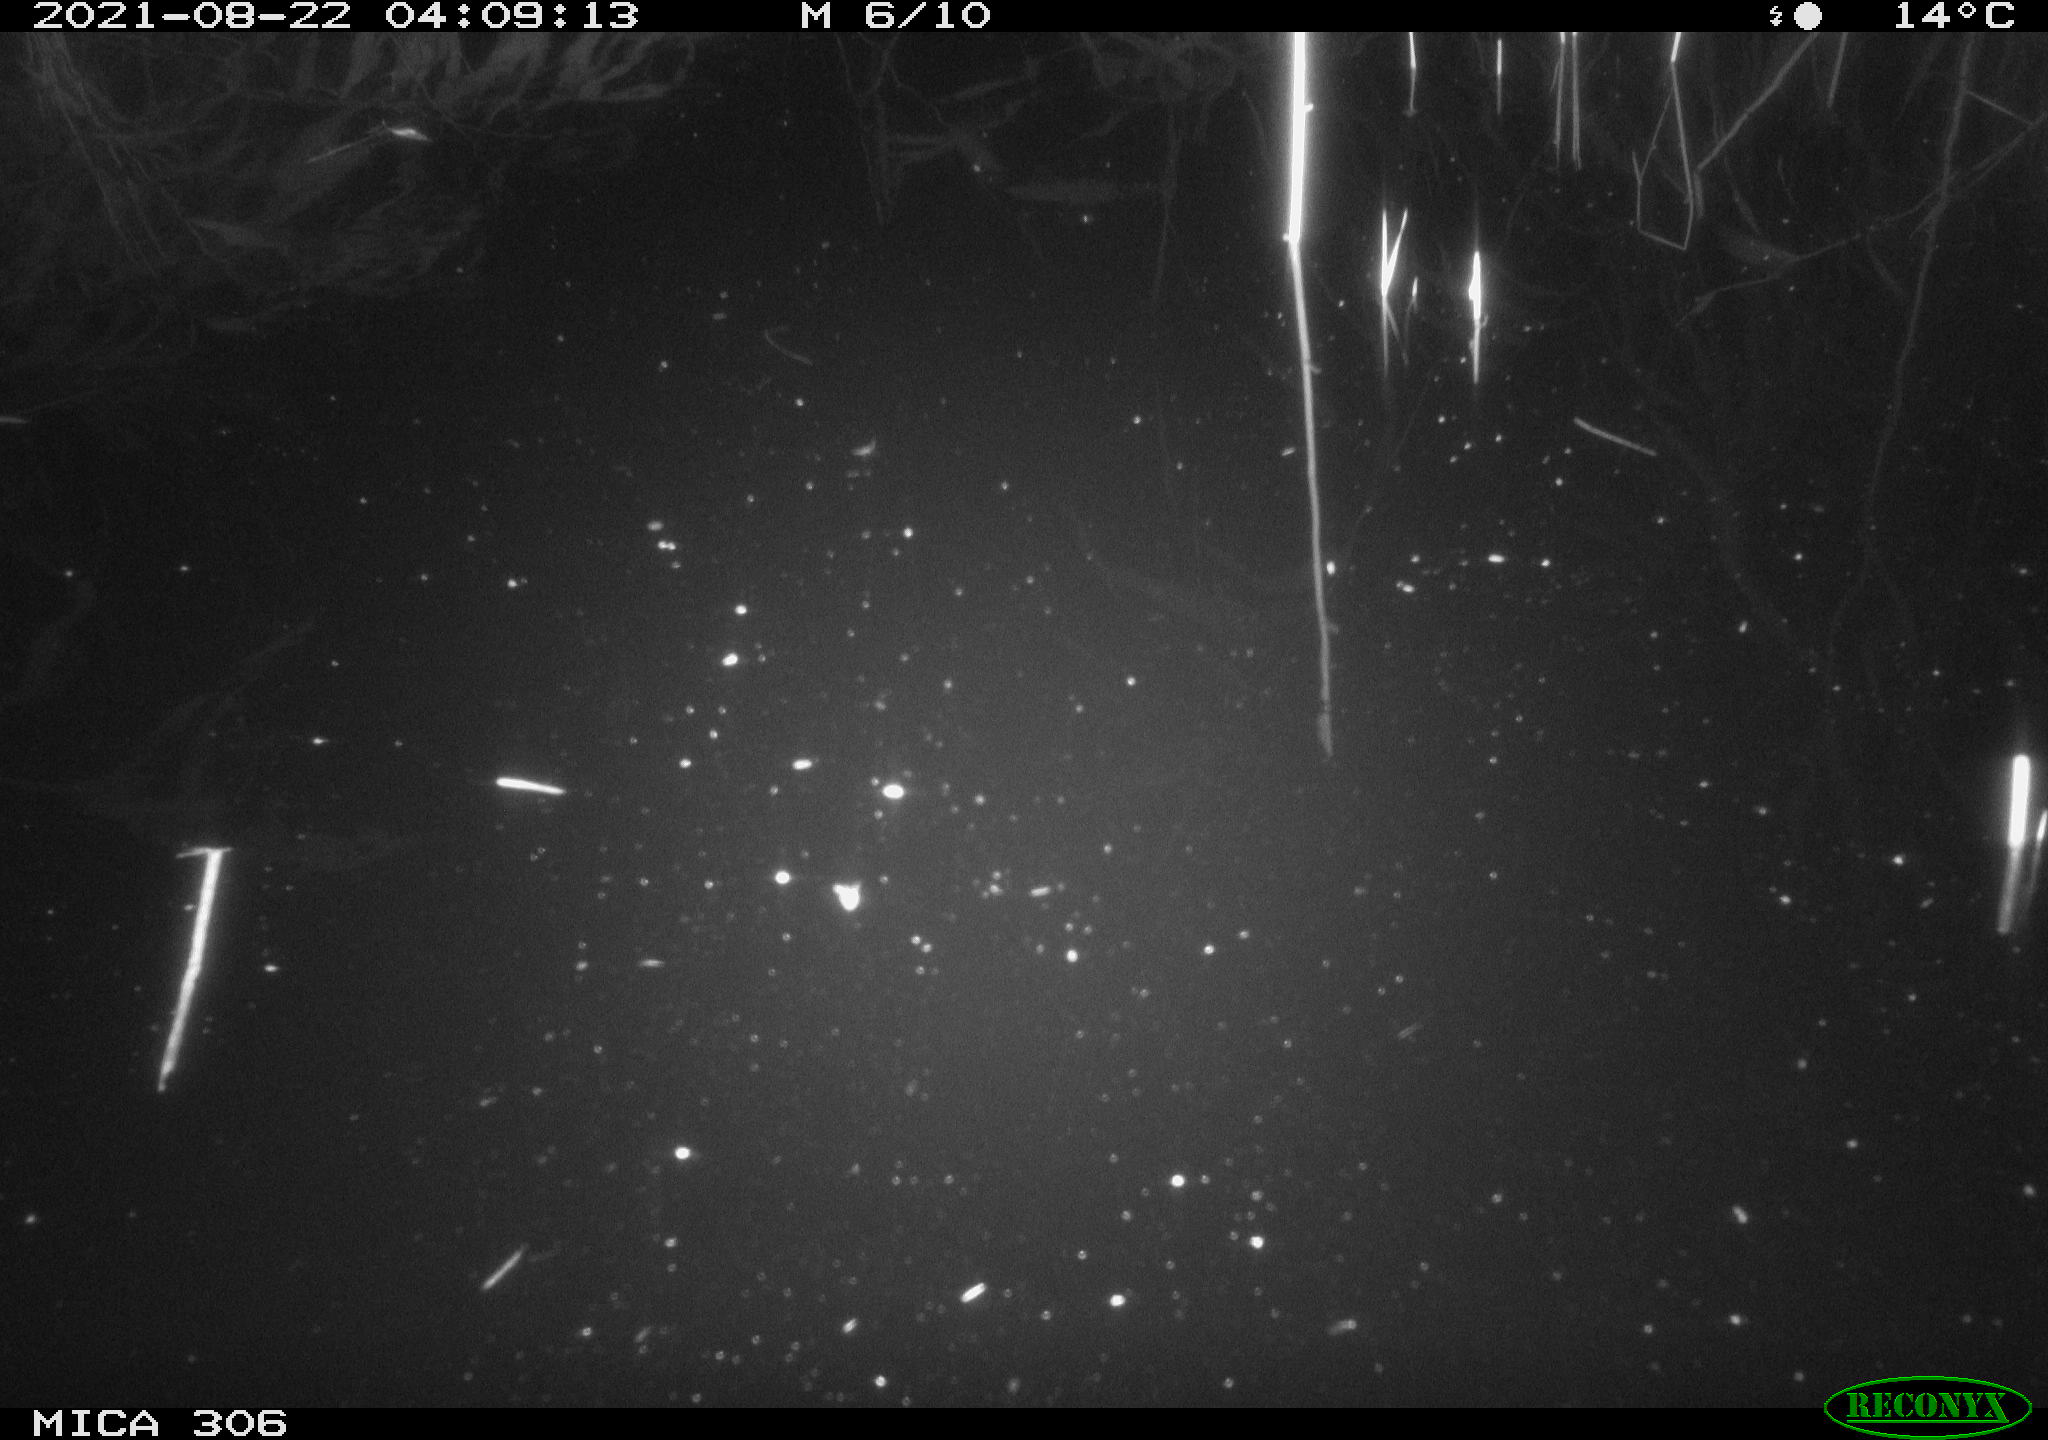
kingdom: Animalia
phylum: Chordata
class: Aves
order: Anseriformes
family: Anatidae
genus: Anas
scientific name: Anas platyrhynchos
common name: Mallard
